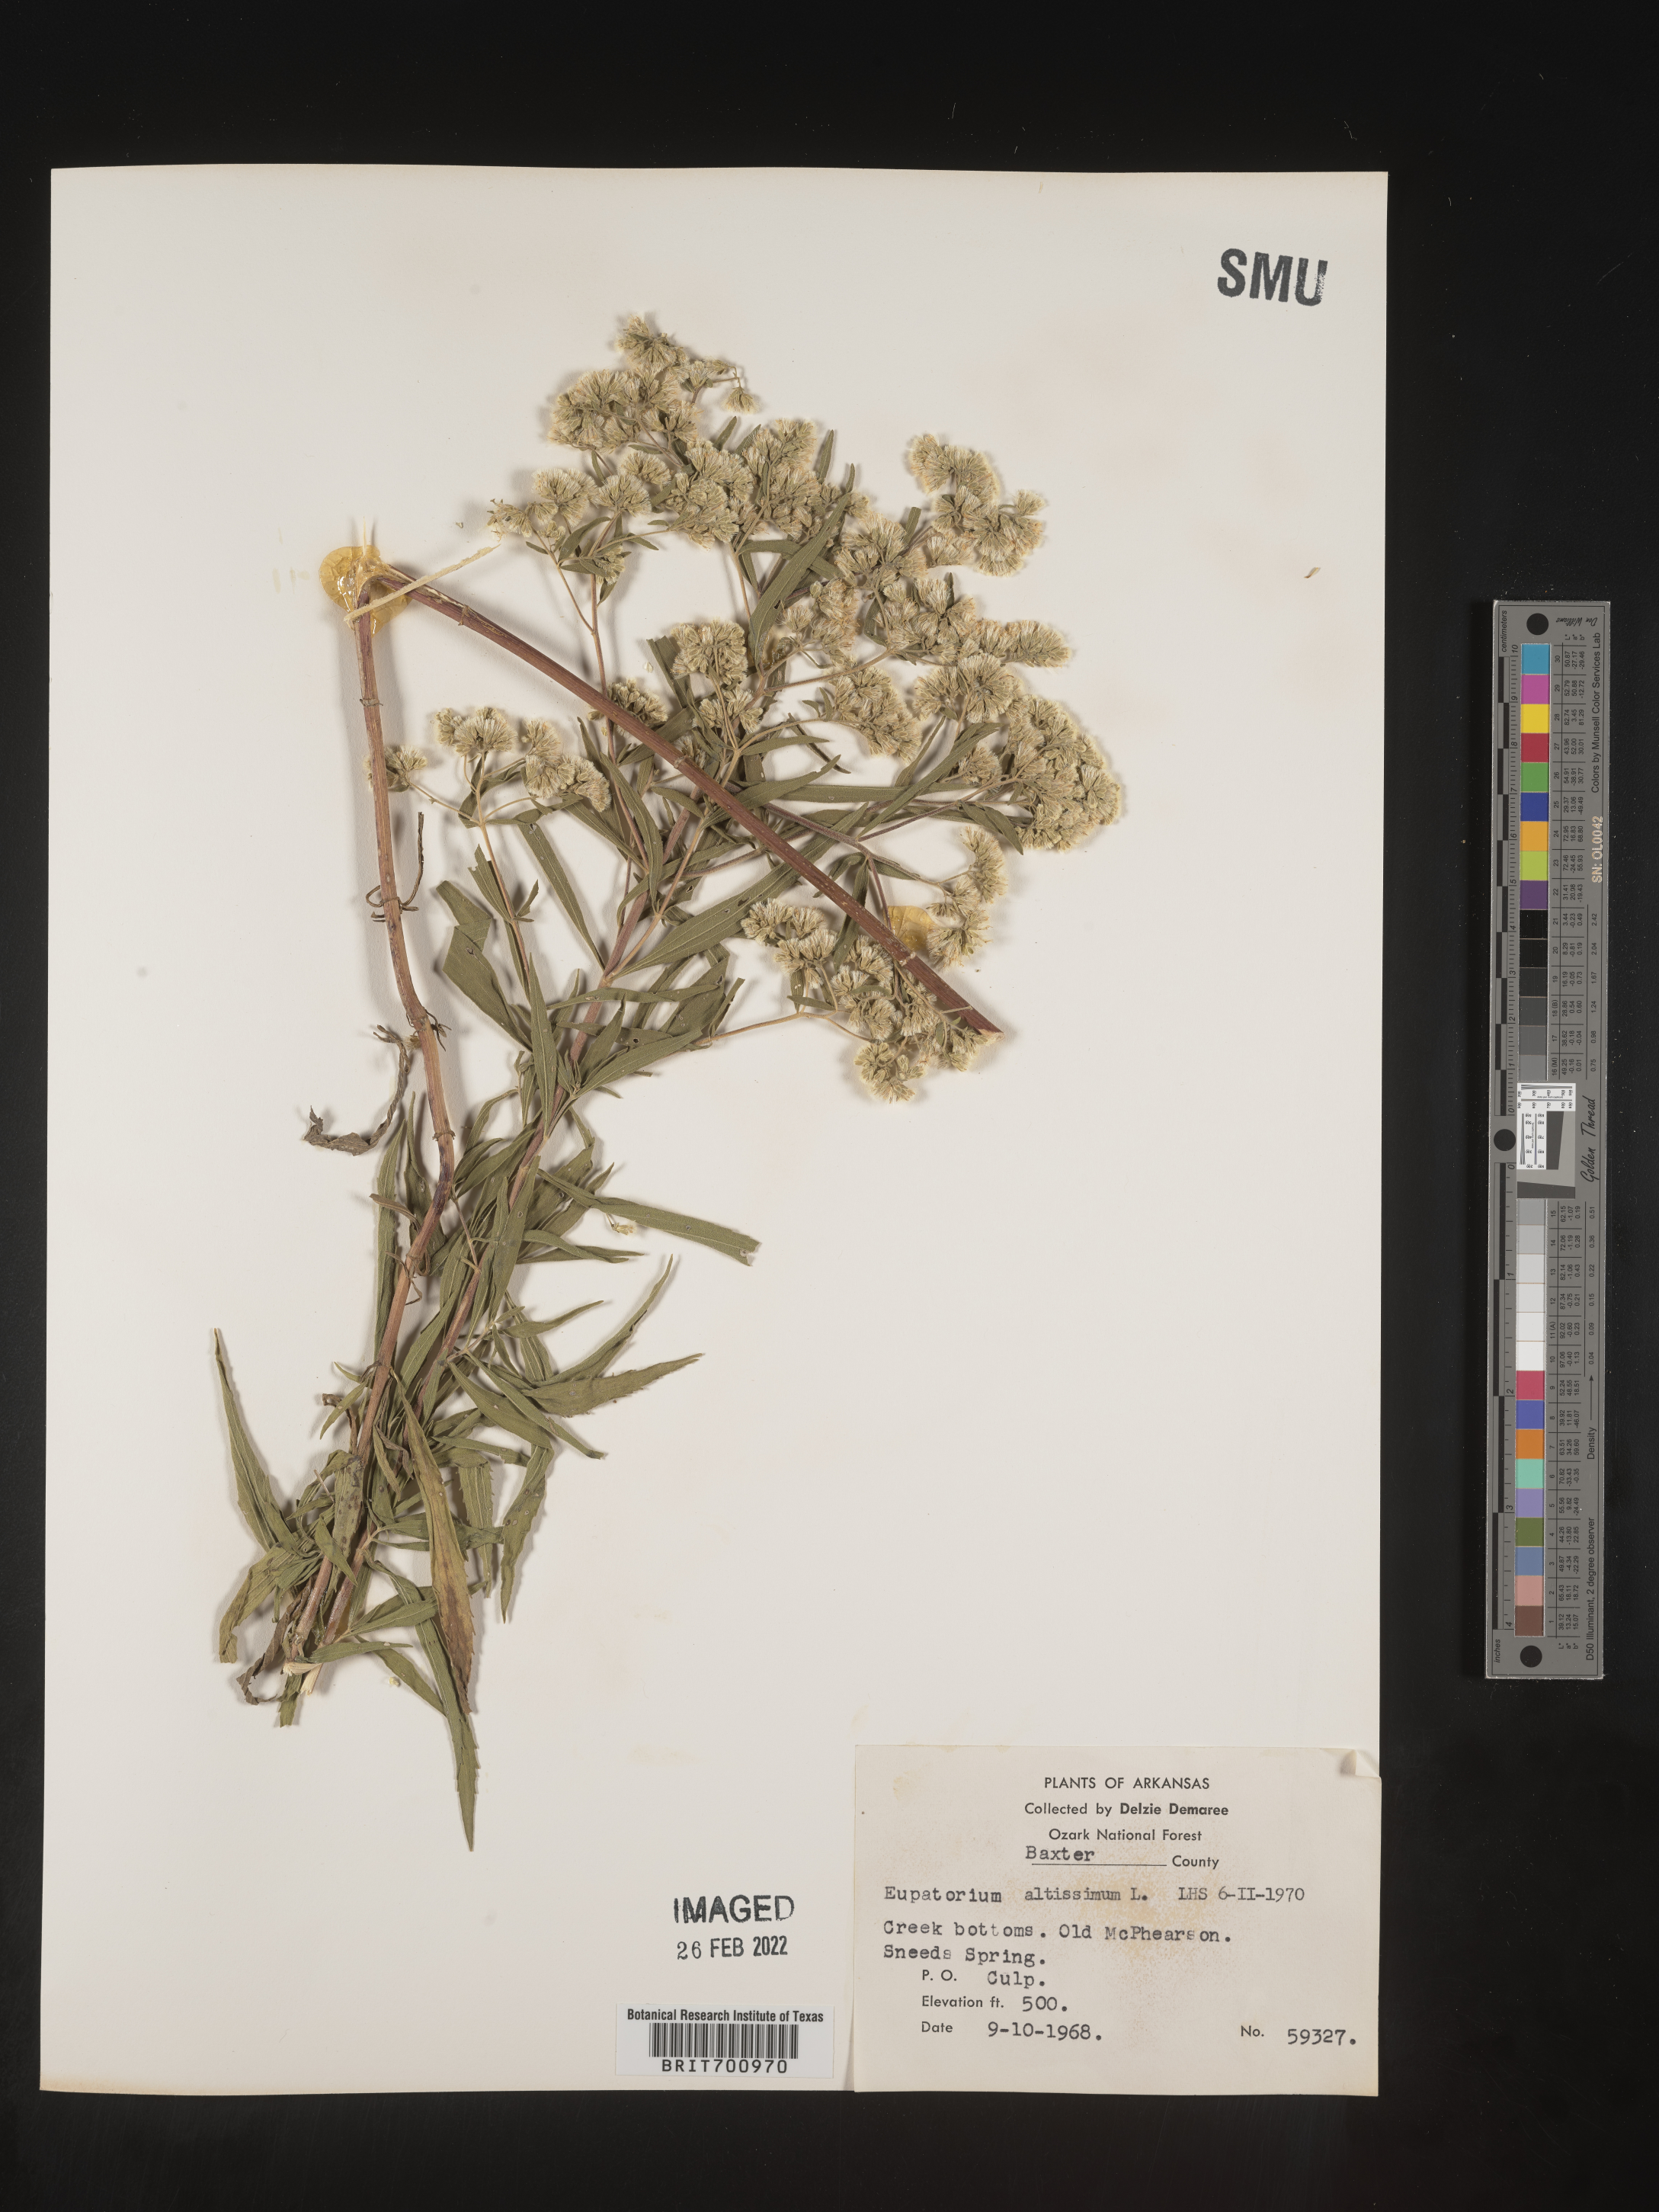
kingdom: Plantae
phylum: Tracheophyta
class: Magnoliopsida
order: Asterales
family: Asteraceae
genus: Eupatorium
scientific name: Eupatorium altissimum
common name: Tall thoroughwort
